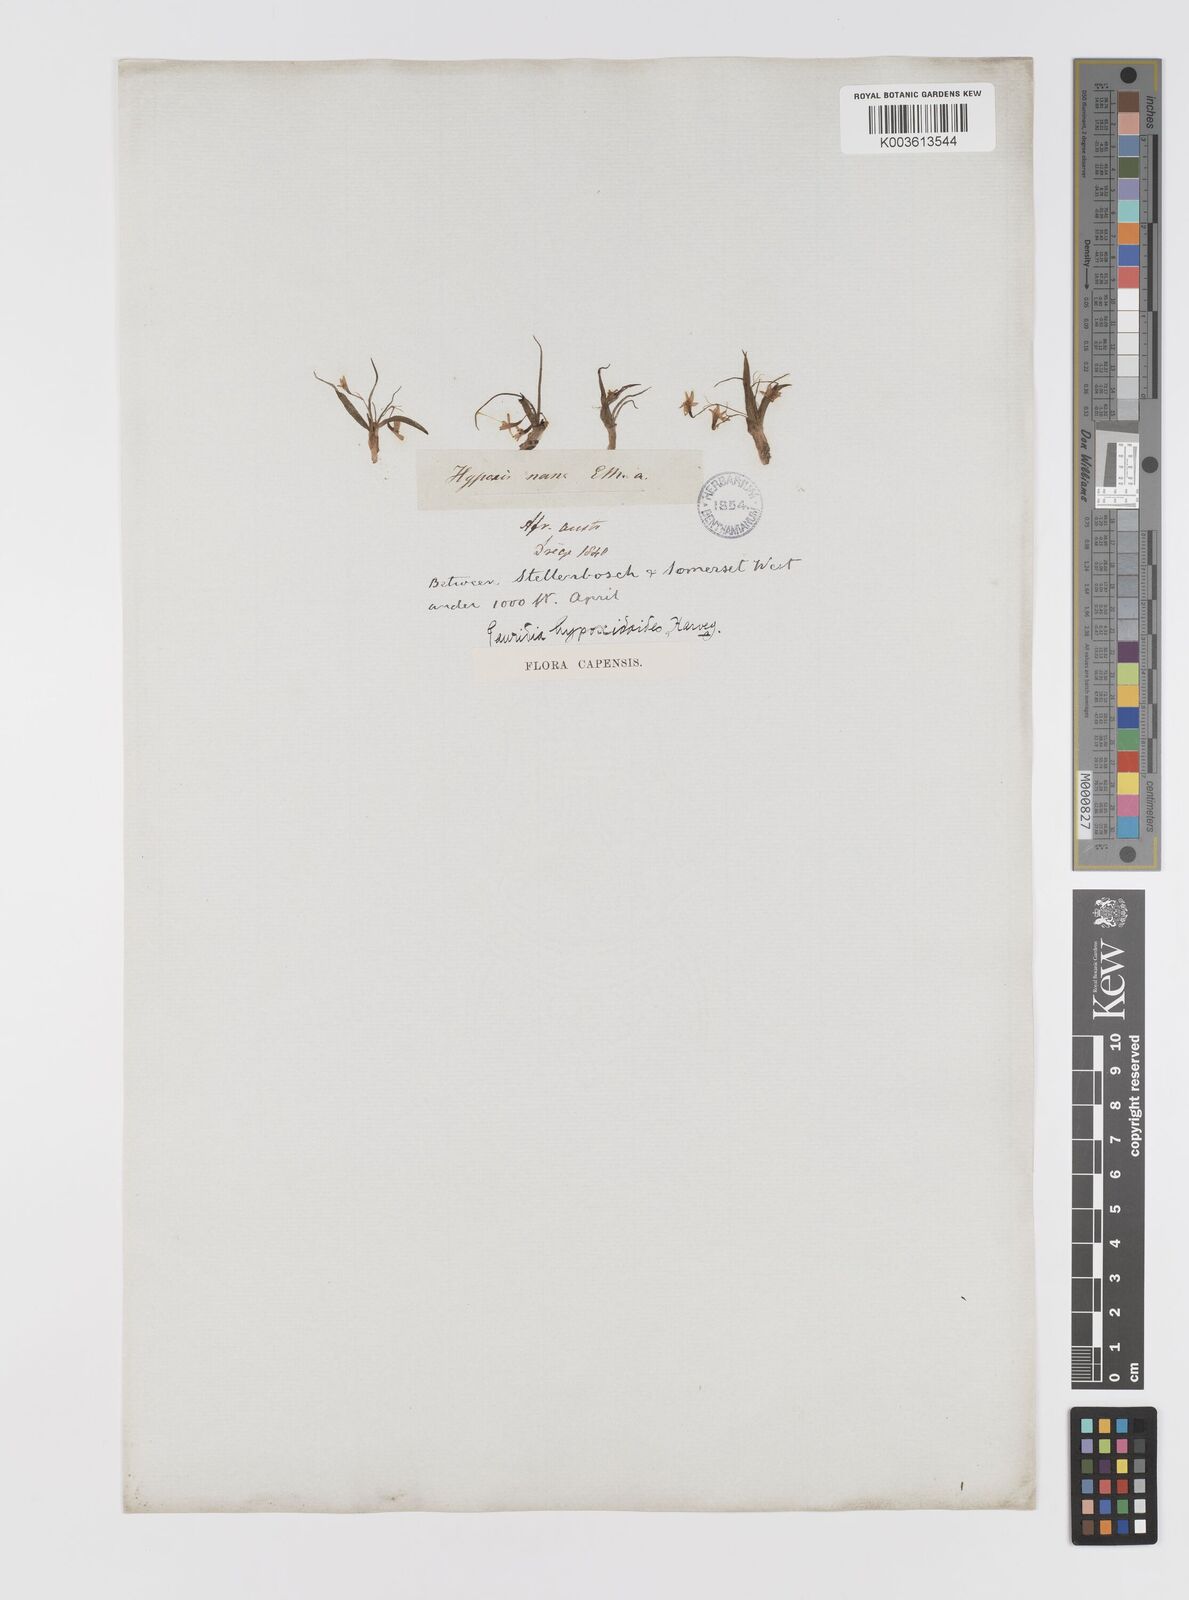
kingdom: Plantae
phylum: Tracheophyta
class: Liliopsida
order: Asparagales
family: Hypoxidaceae
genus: Pauridia
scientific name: Pauridia minuta
